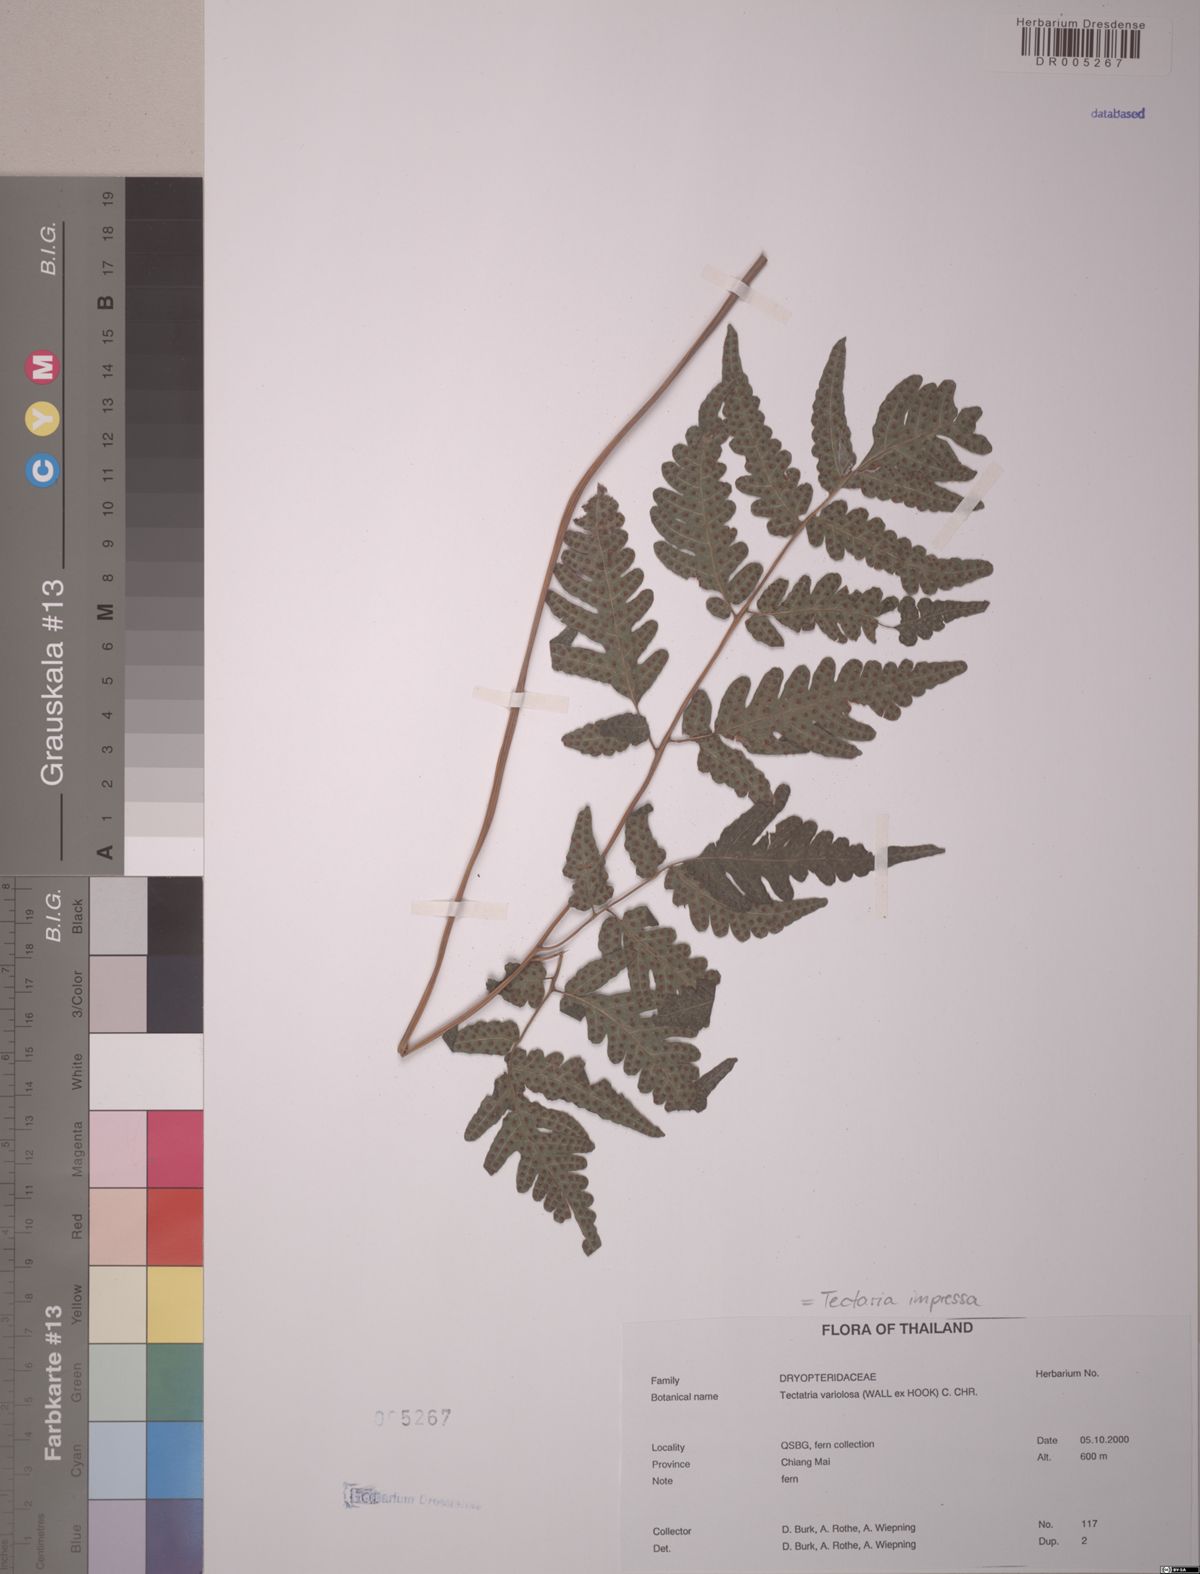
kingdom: Plantae
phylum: Tracheophyta
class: Polypodiopsida
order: Polypodiales
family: Tectariaceae
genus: Tectaria
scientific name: Tectaria impressa
